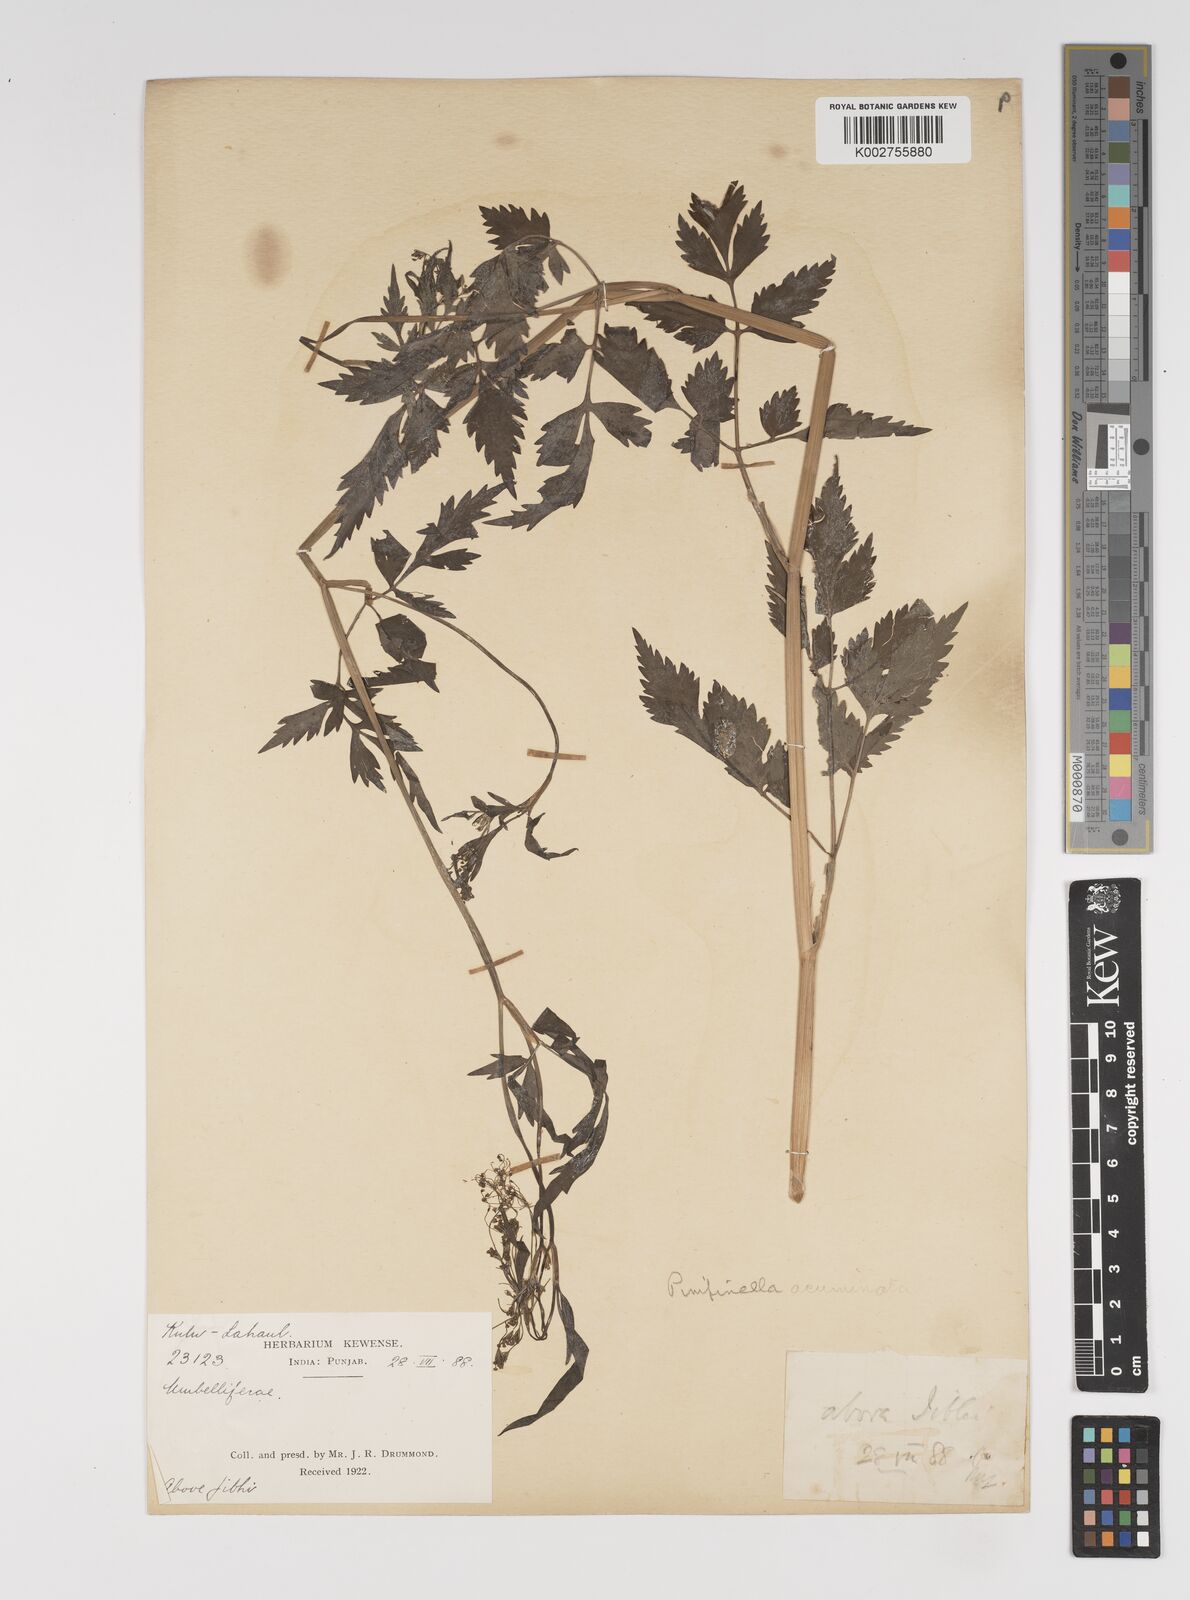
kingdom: Plantae
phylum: Tracheophyta
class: Magnoliopsida
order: Apiales
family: Apiaceae
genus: Pimpinella
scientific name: Pimpinella acuminata
